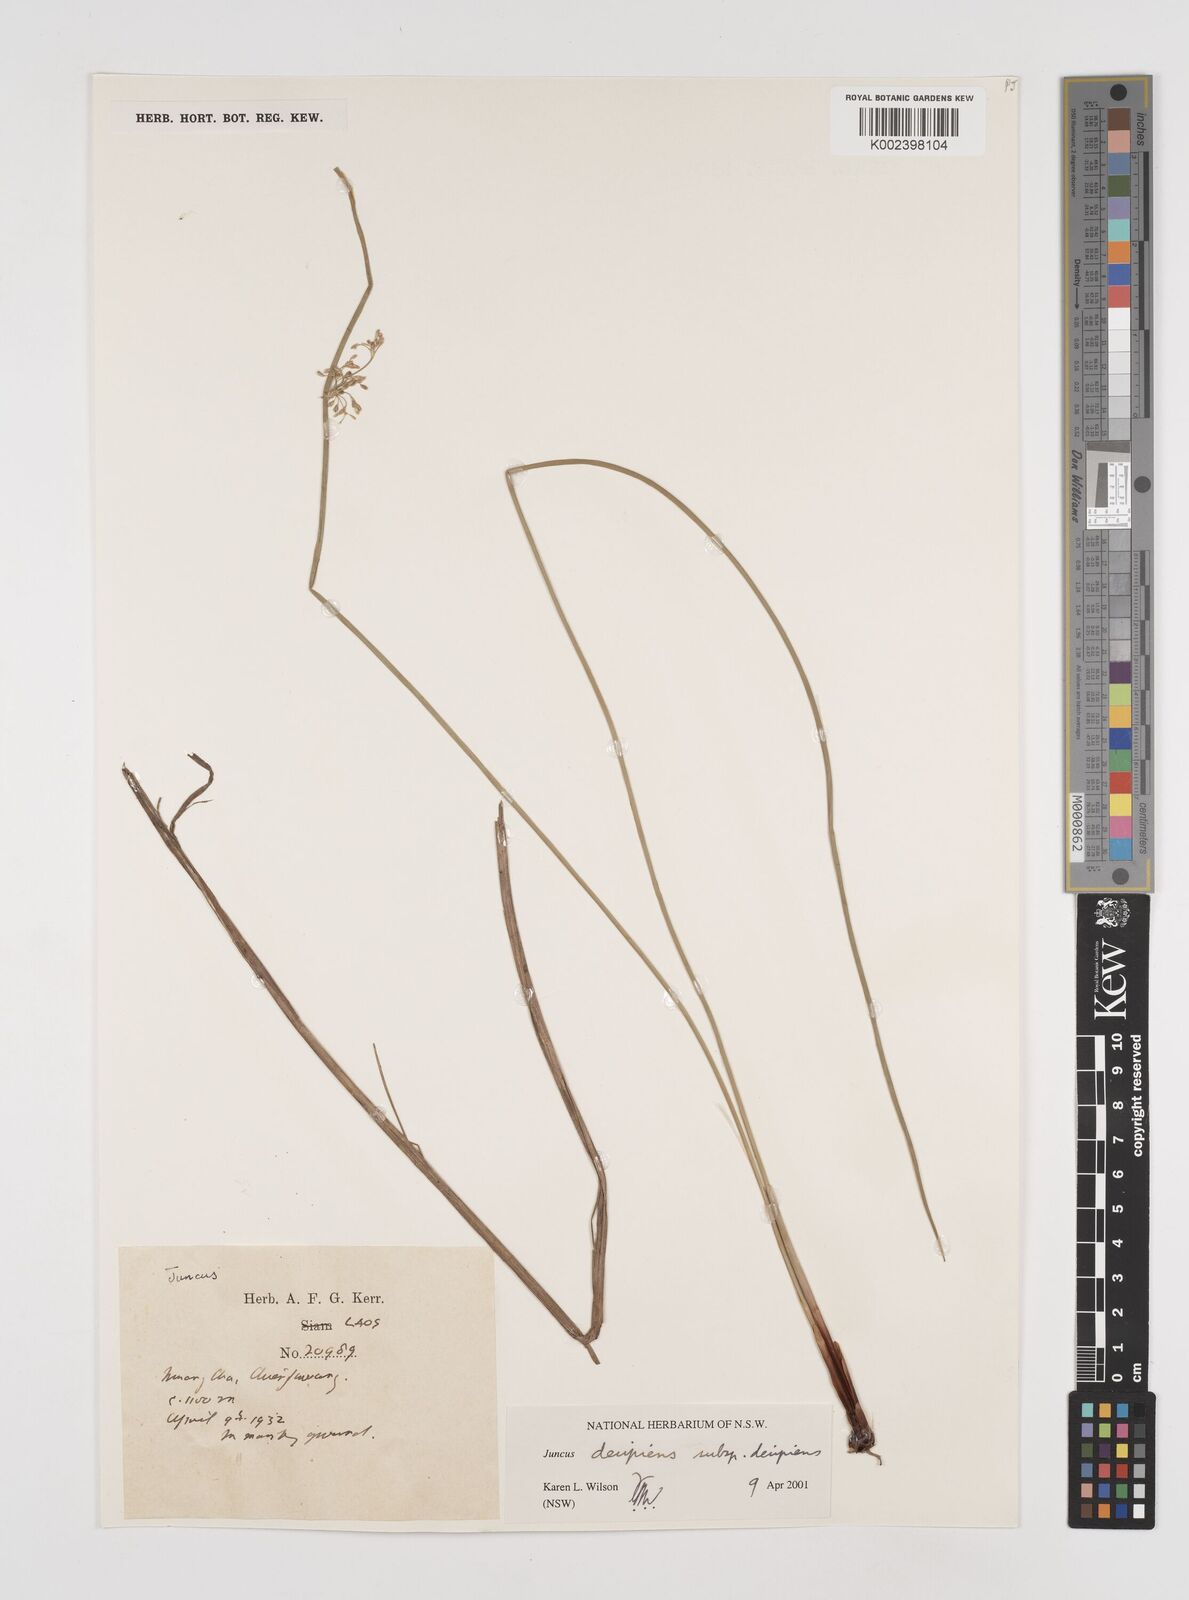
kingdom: Plantae
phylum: Tracheophyta
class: Liliopsida
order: Poales
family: Juncaceae
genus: Juncus
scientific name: Juncus decipiens
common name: Lamp rush
